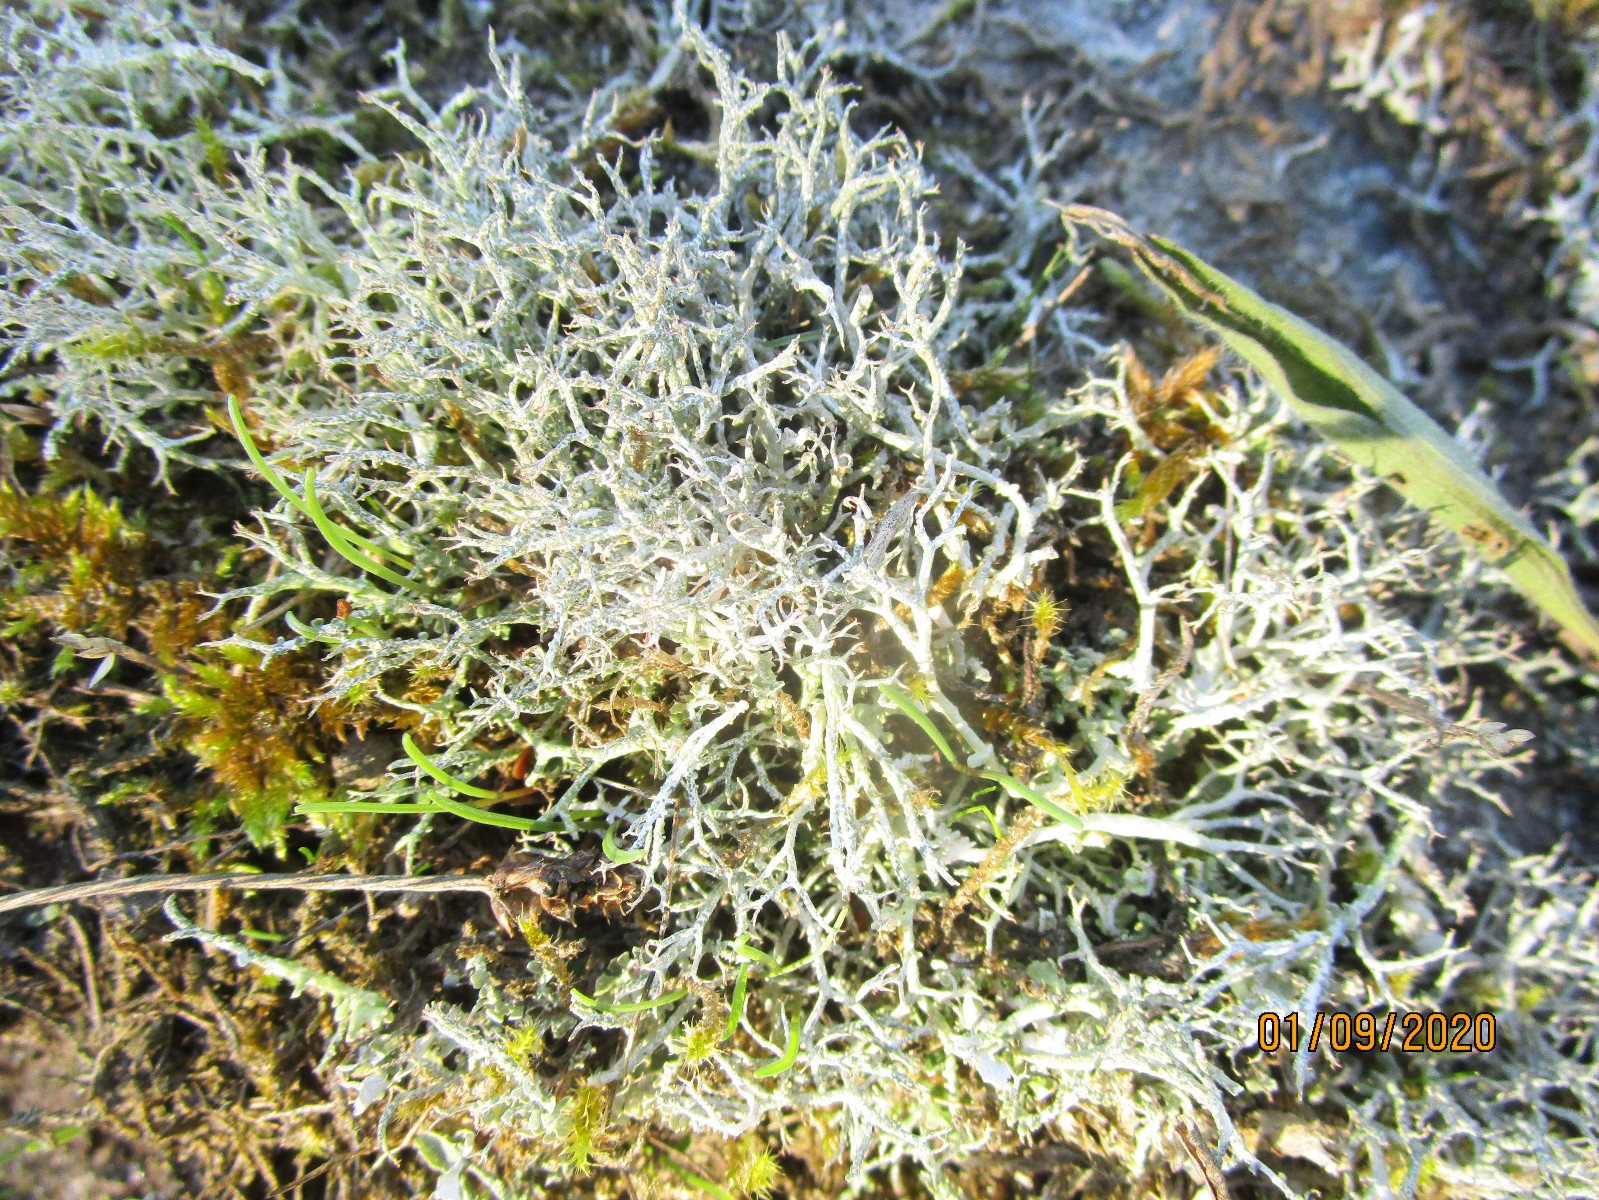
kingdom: Fungi
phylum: Ascomycota
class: Lecanoromycetes
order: Lecanorales
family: Cladoniaceae
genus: Cladonia
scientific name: Cladonia rangiformis
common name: spættet bægerlav
